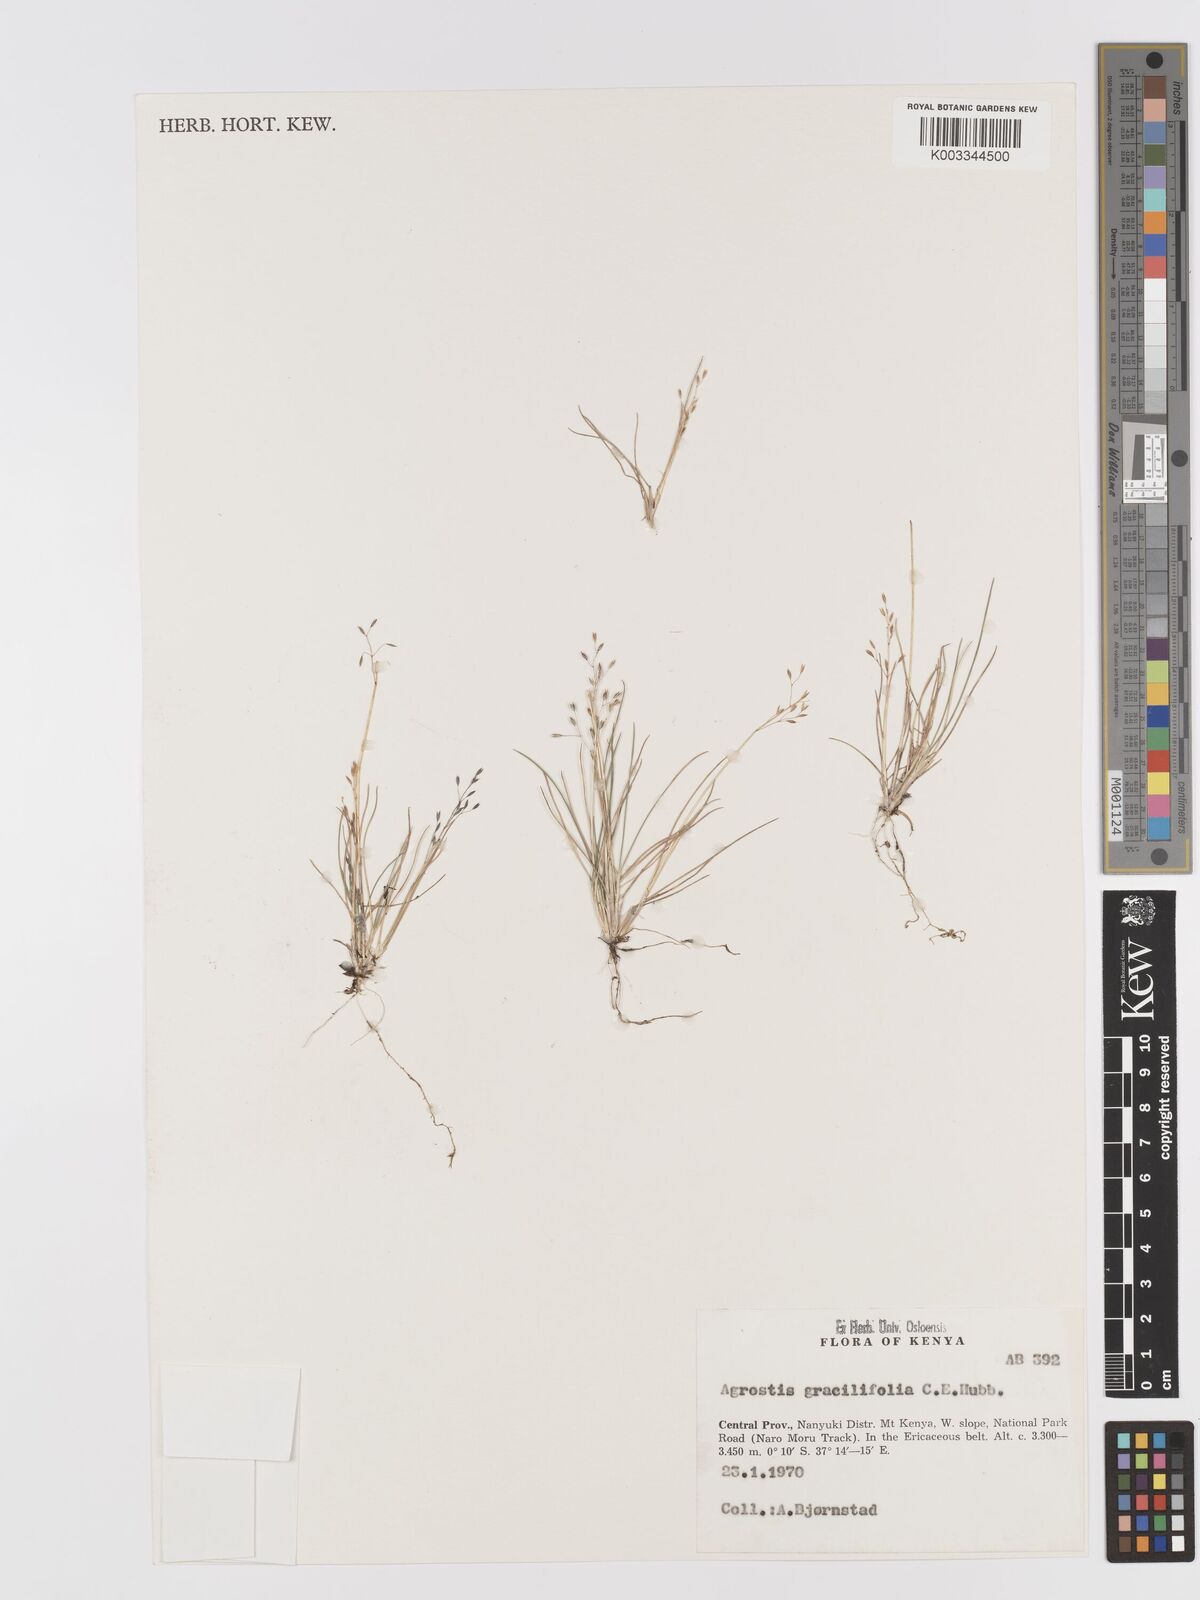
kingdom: Plantae
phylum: Tracheophyta
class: Liliopsida
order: Poales
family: Poaceae
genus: Agrostis
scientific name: Agrostis gracilifolia
